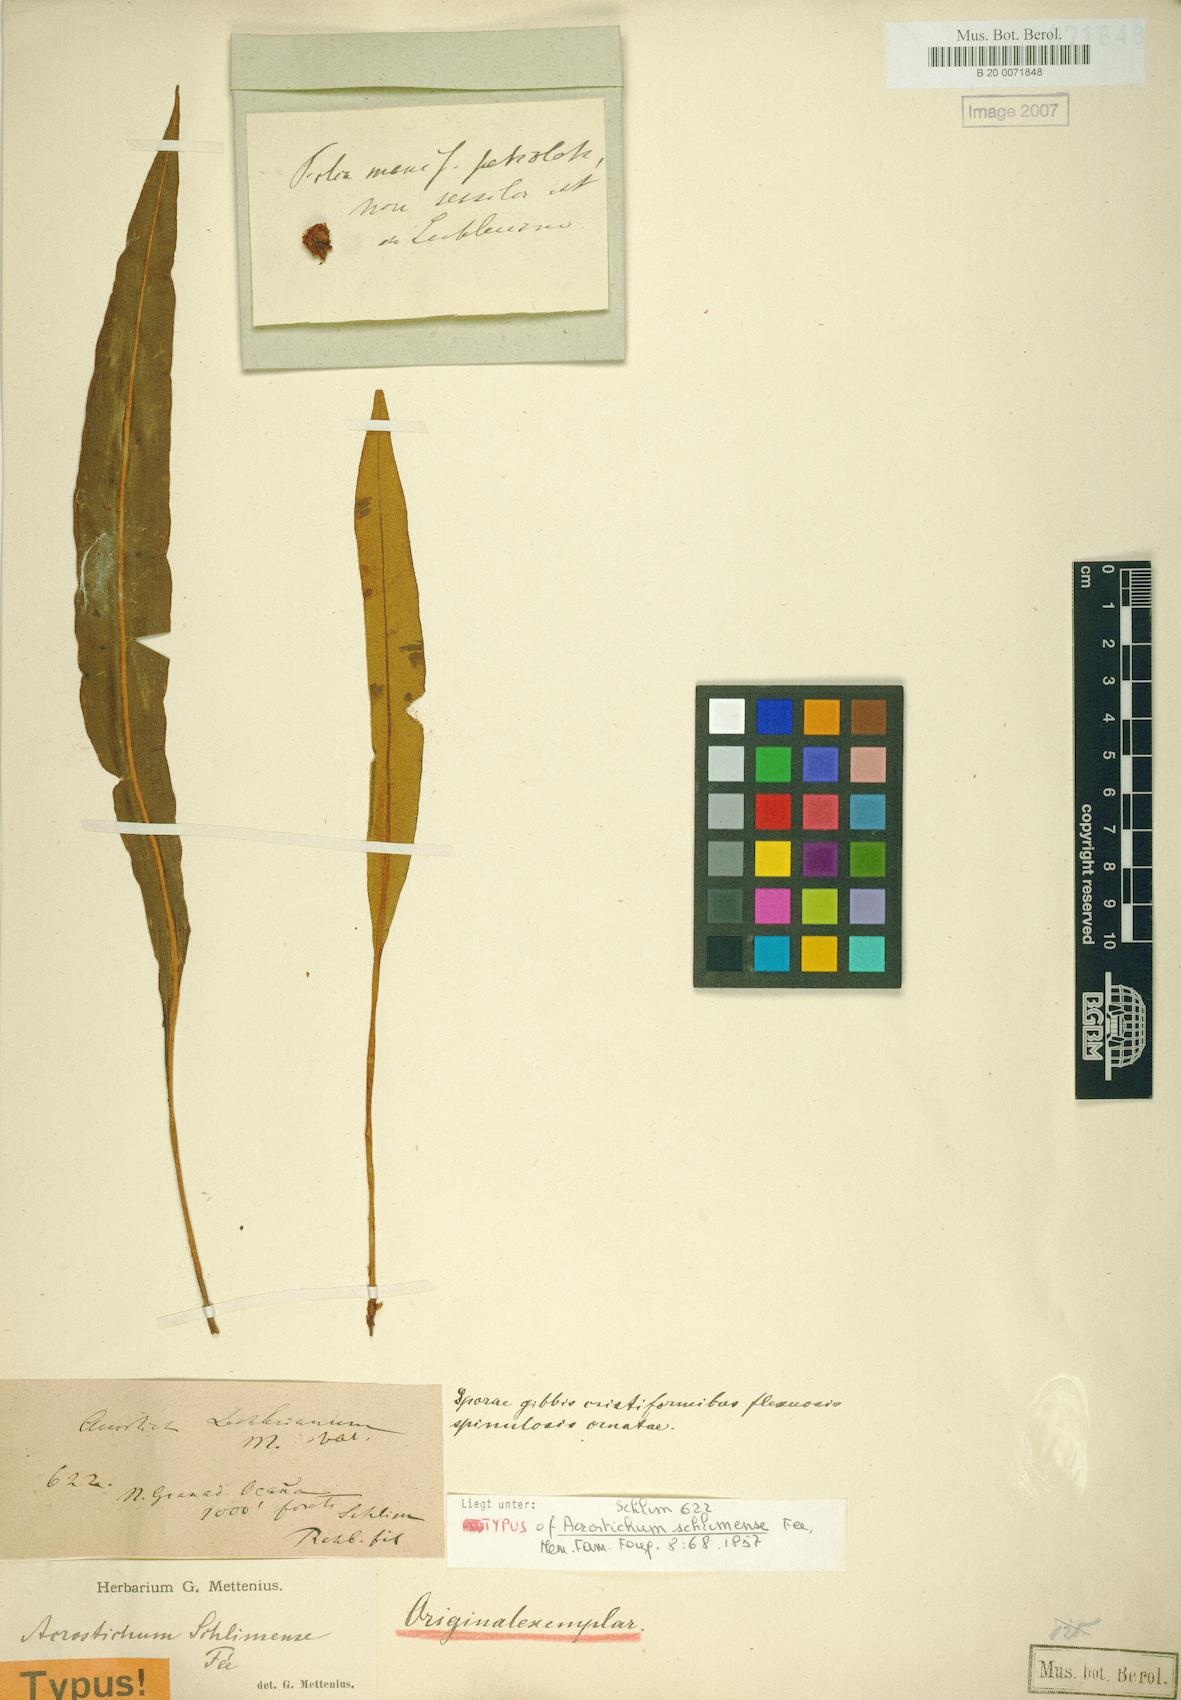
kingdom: Plantae
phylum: Tracheophyta
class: Polypodiopsida
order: Polypodiales
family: Pteridaceae
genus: Acrostichum
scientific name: Acrostichum schlimense
